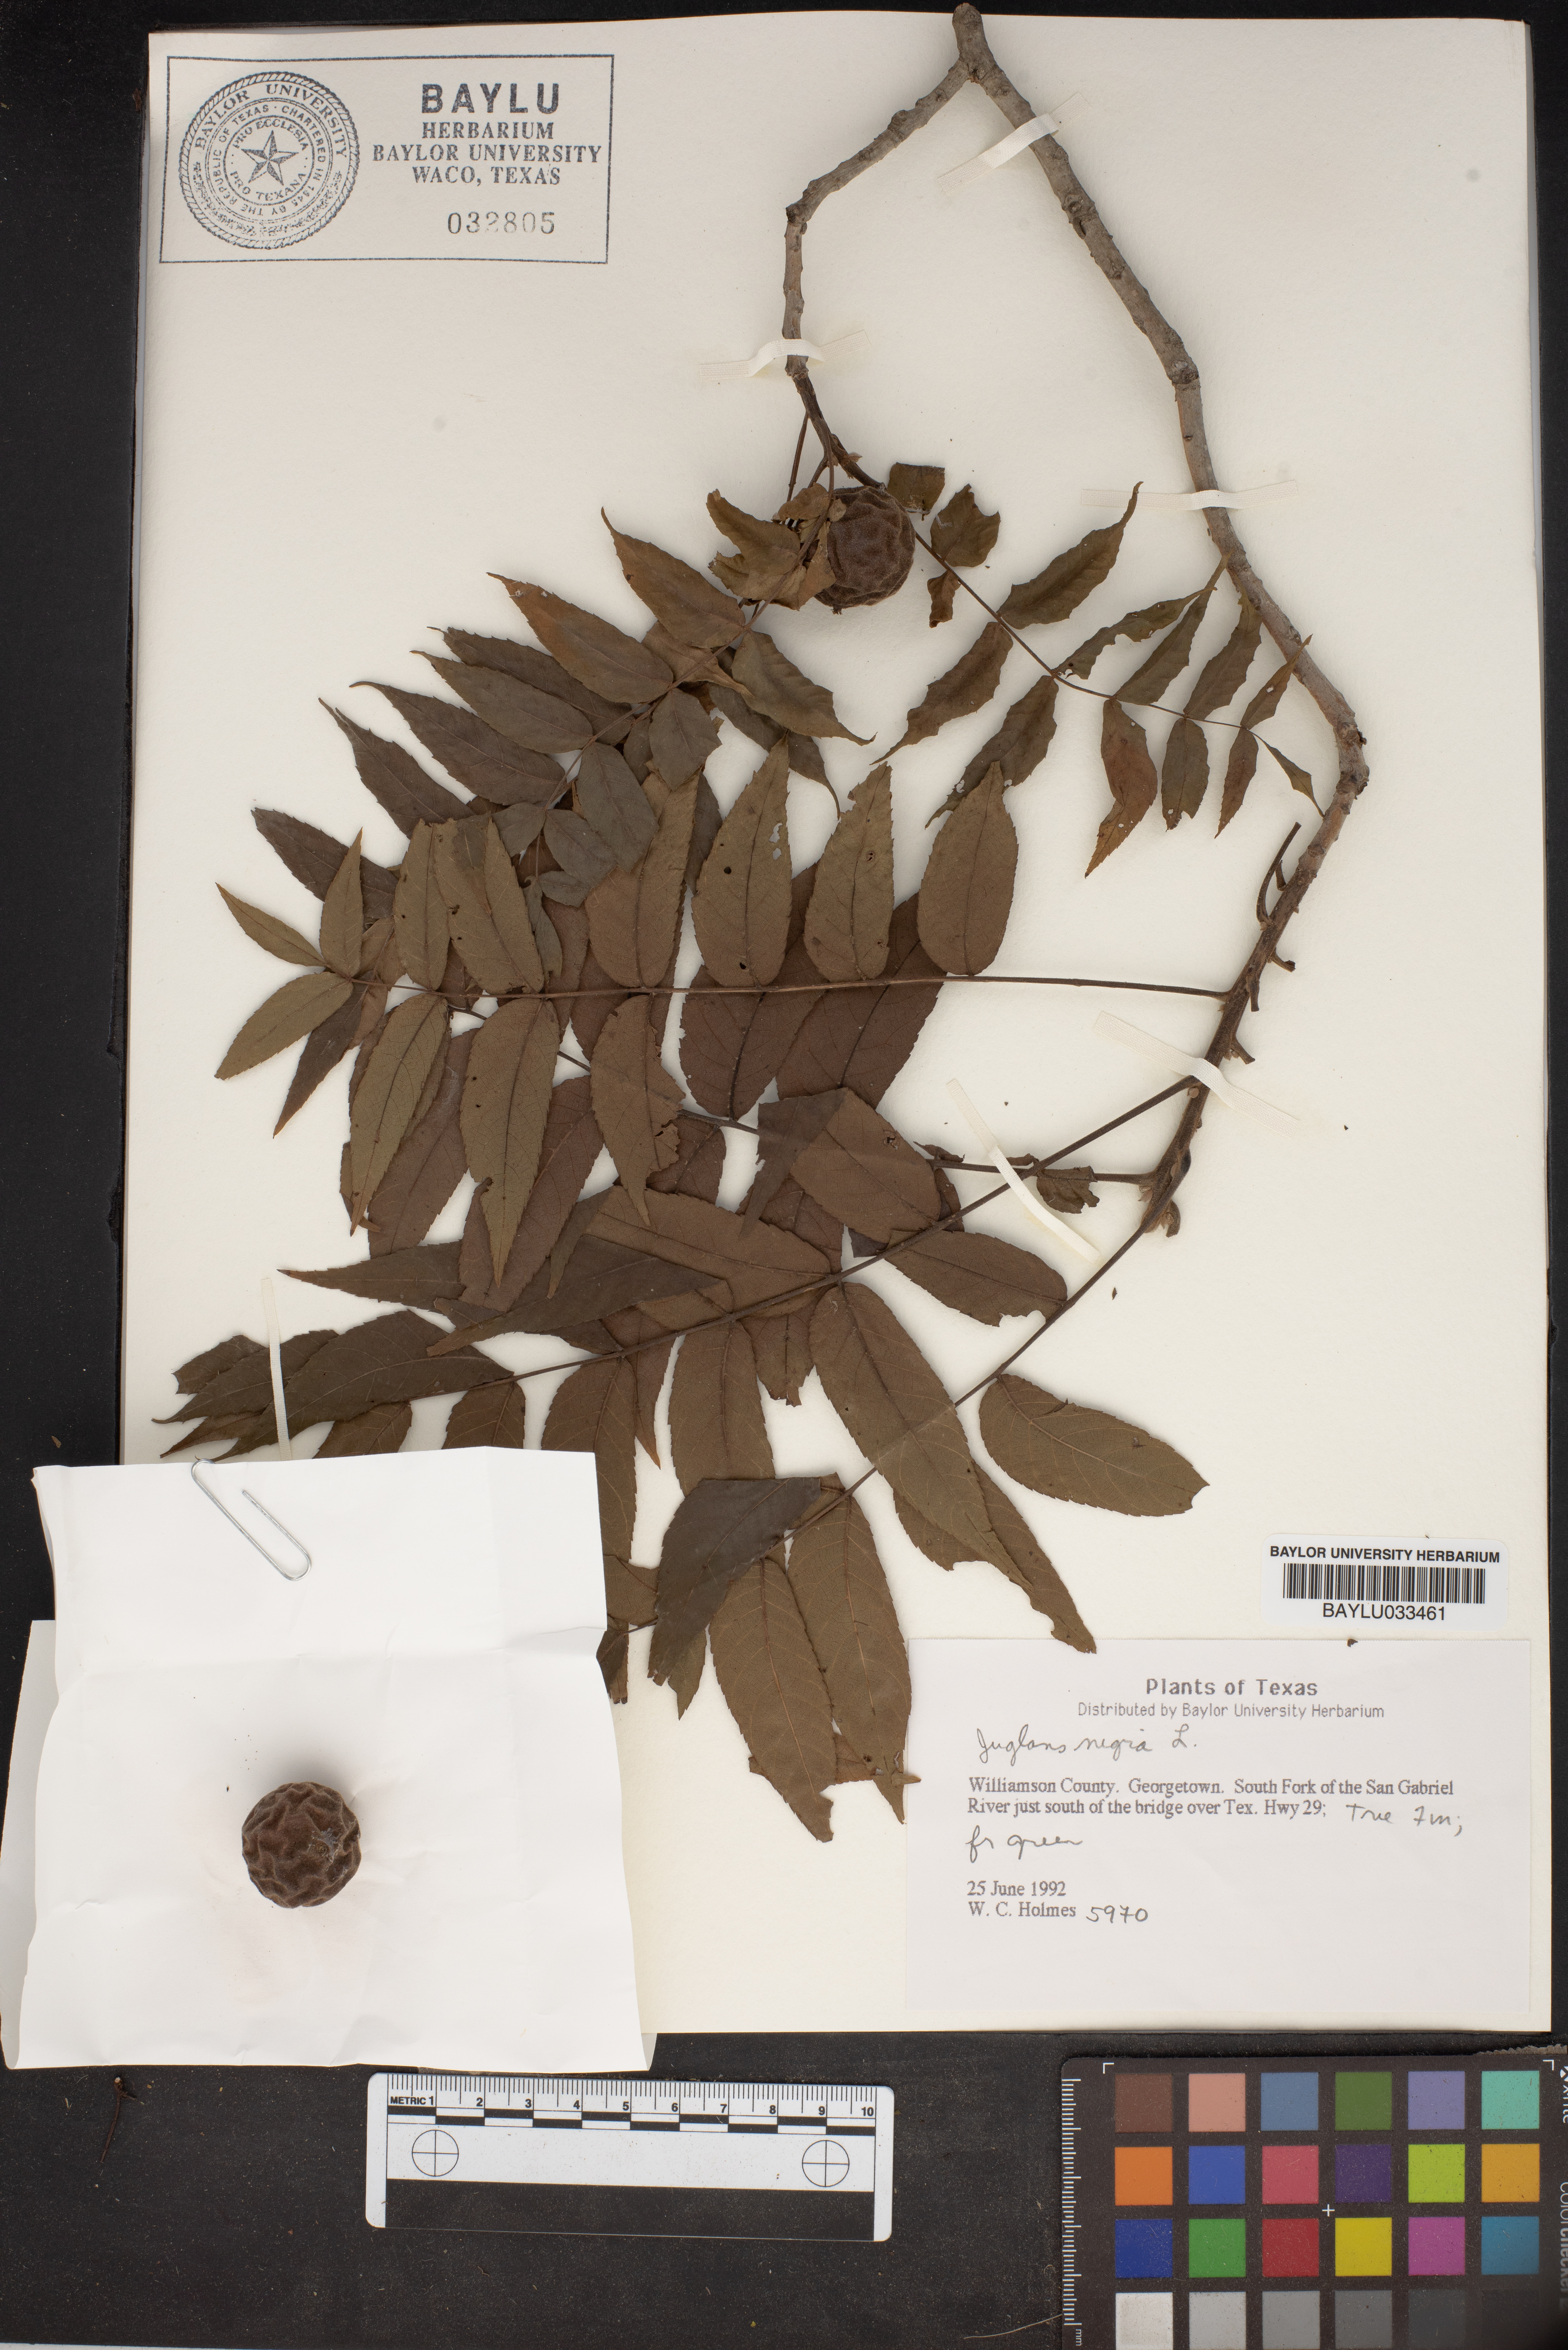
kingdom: Plantae
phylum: Tracheophyta
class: Magnoliopsida
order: Fagales
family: Juglandaceae
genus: Juglans
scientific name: Juglans nigra
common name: Black walnut
